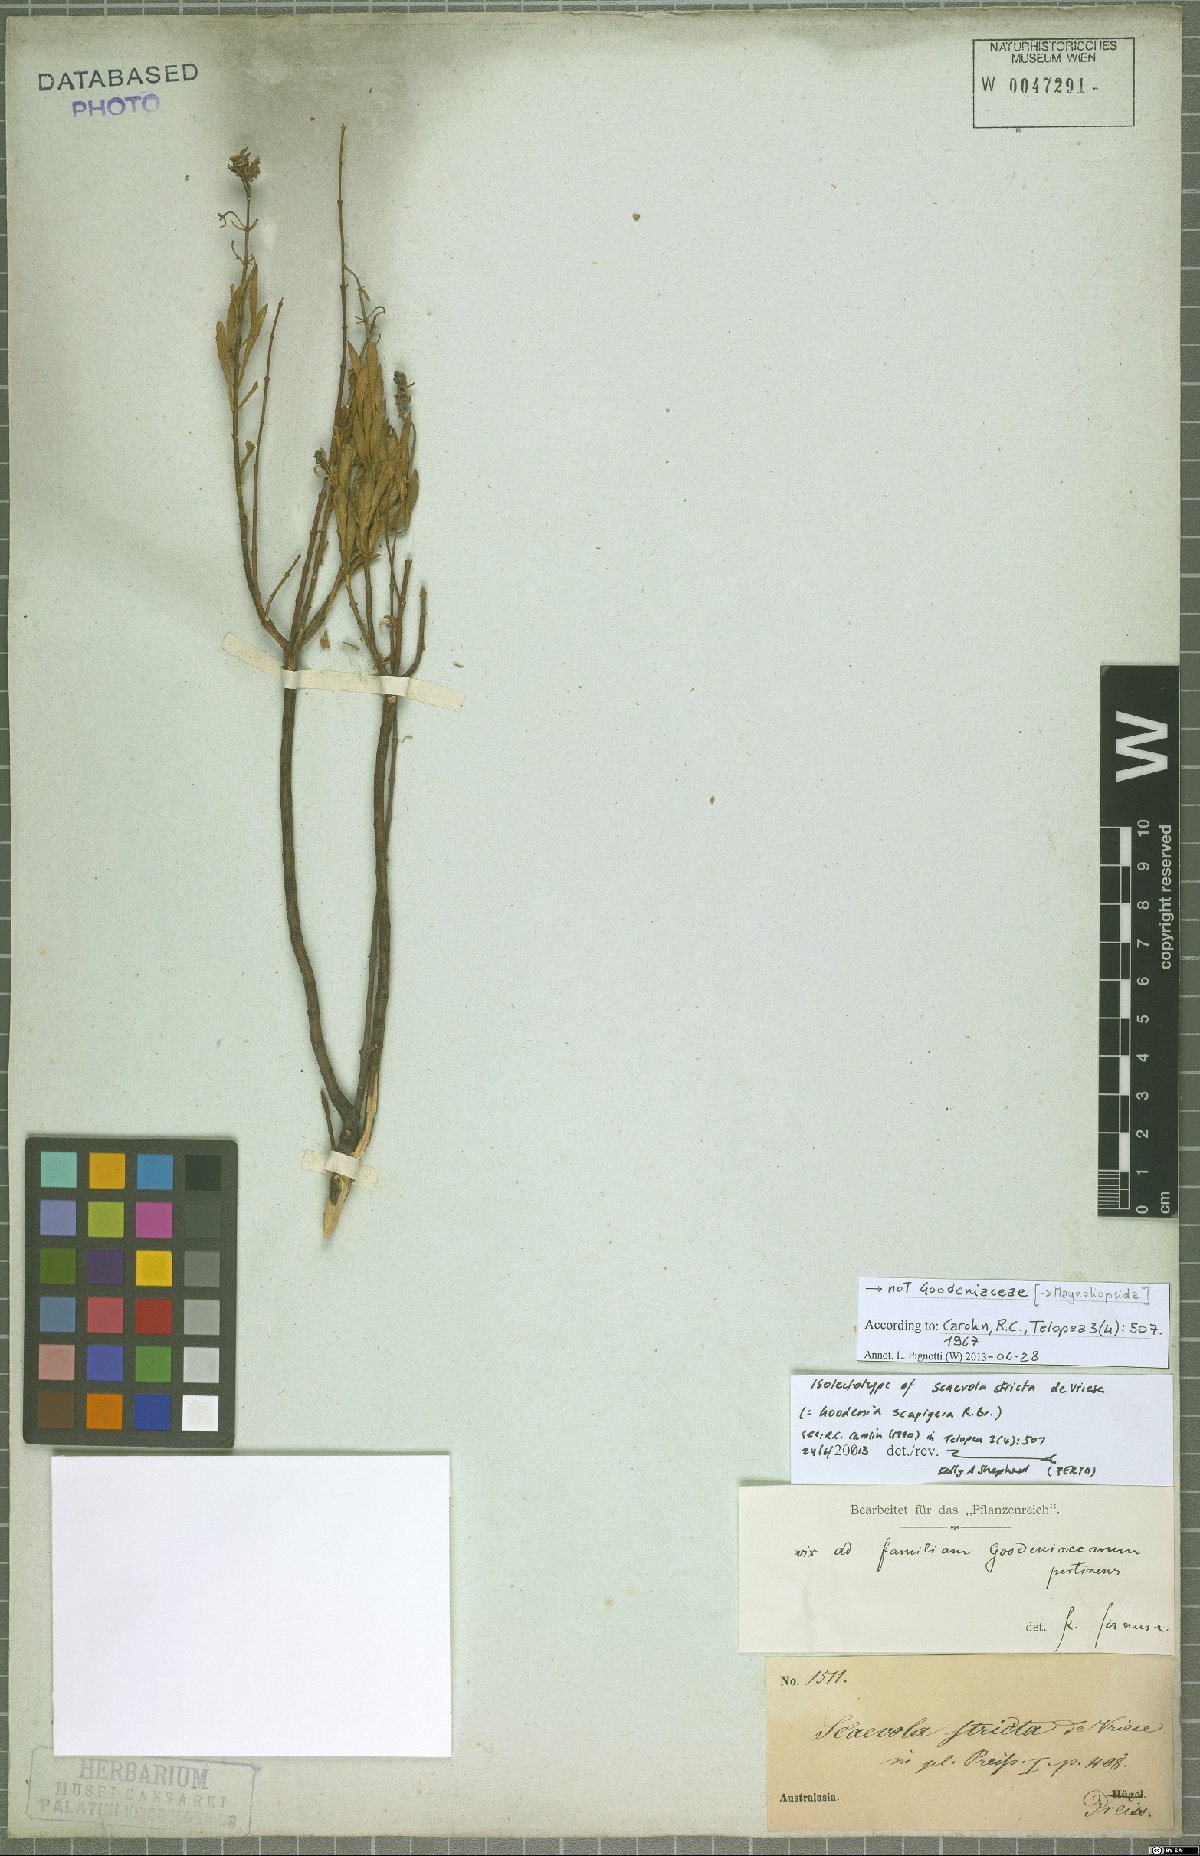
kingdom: Plantae
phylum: Tracheophyta
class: Magnoliopsida
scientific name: Magnoliopsida
